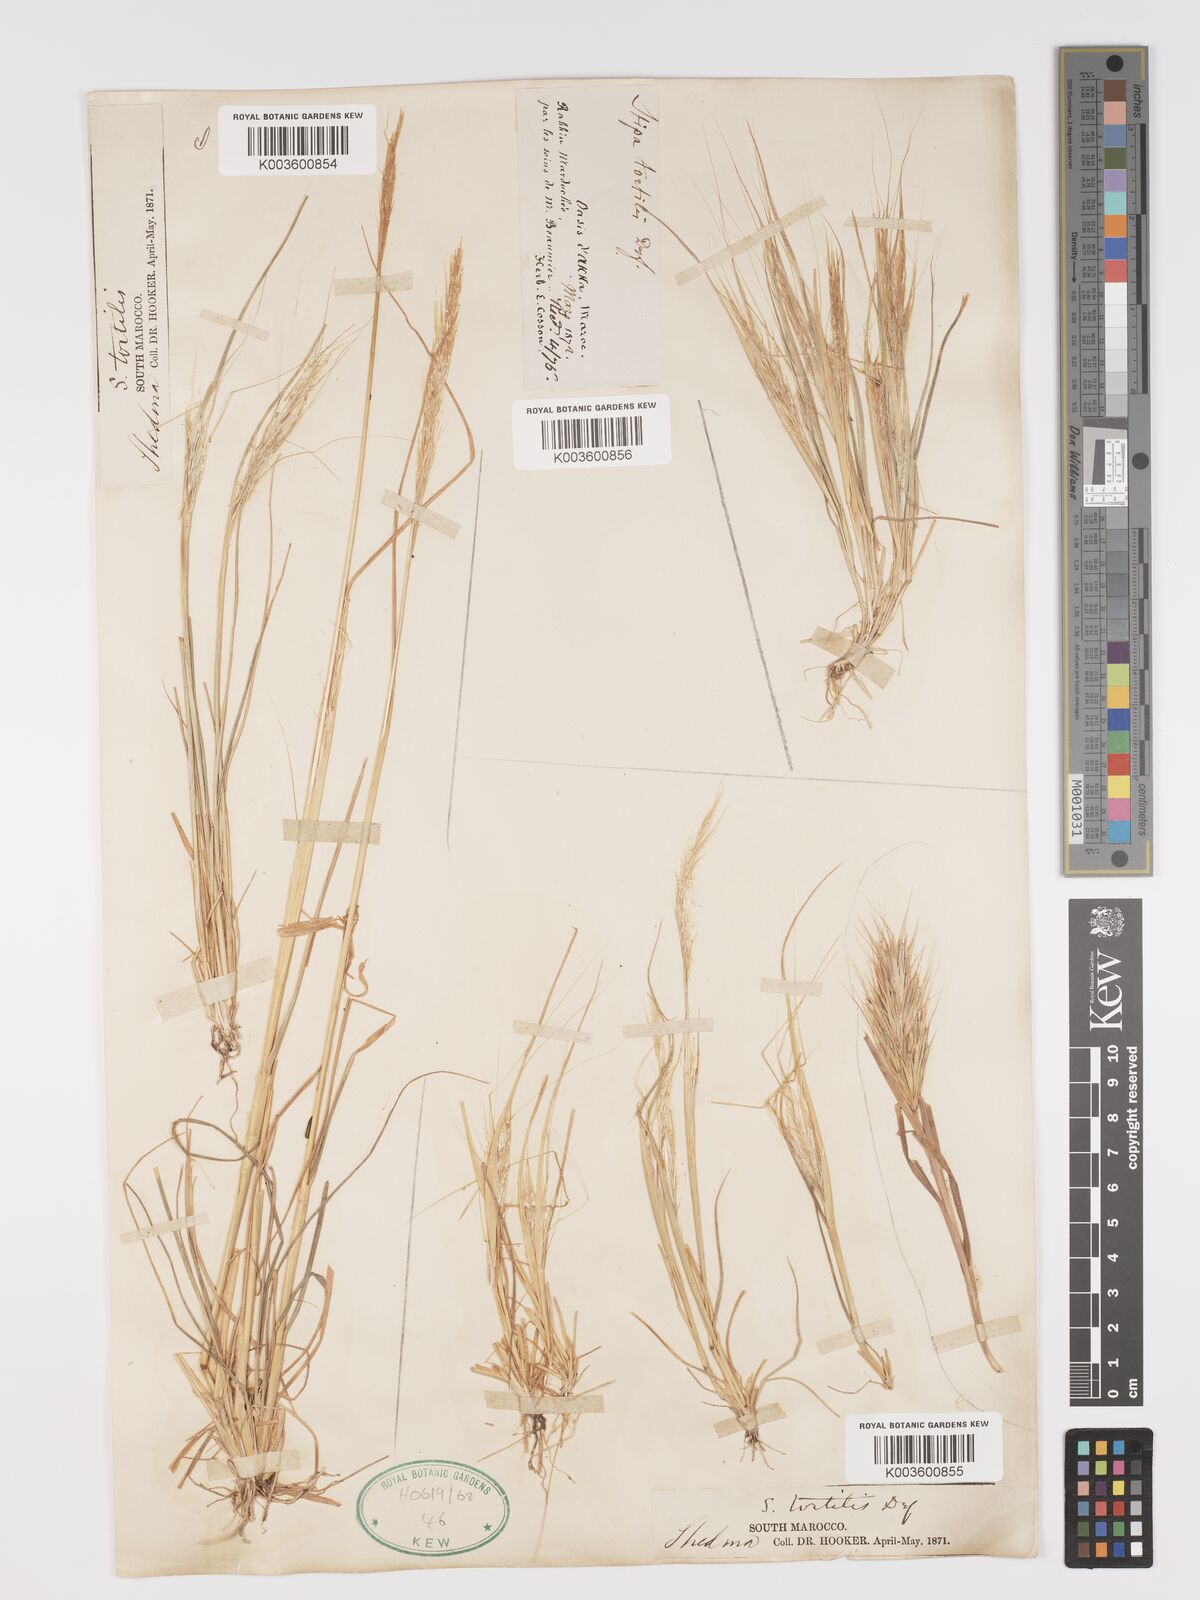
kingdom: Plantae
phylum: Tracheophyta
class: Liliopsida
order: Poales
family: Poaceae
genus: Stipellula
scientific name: Stipellula capensis
